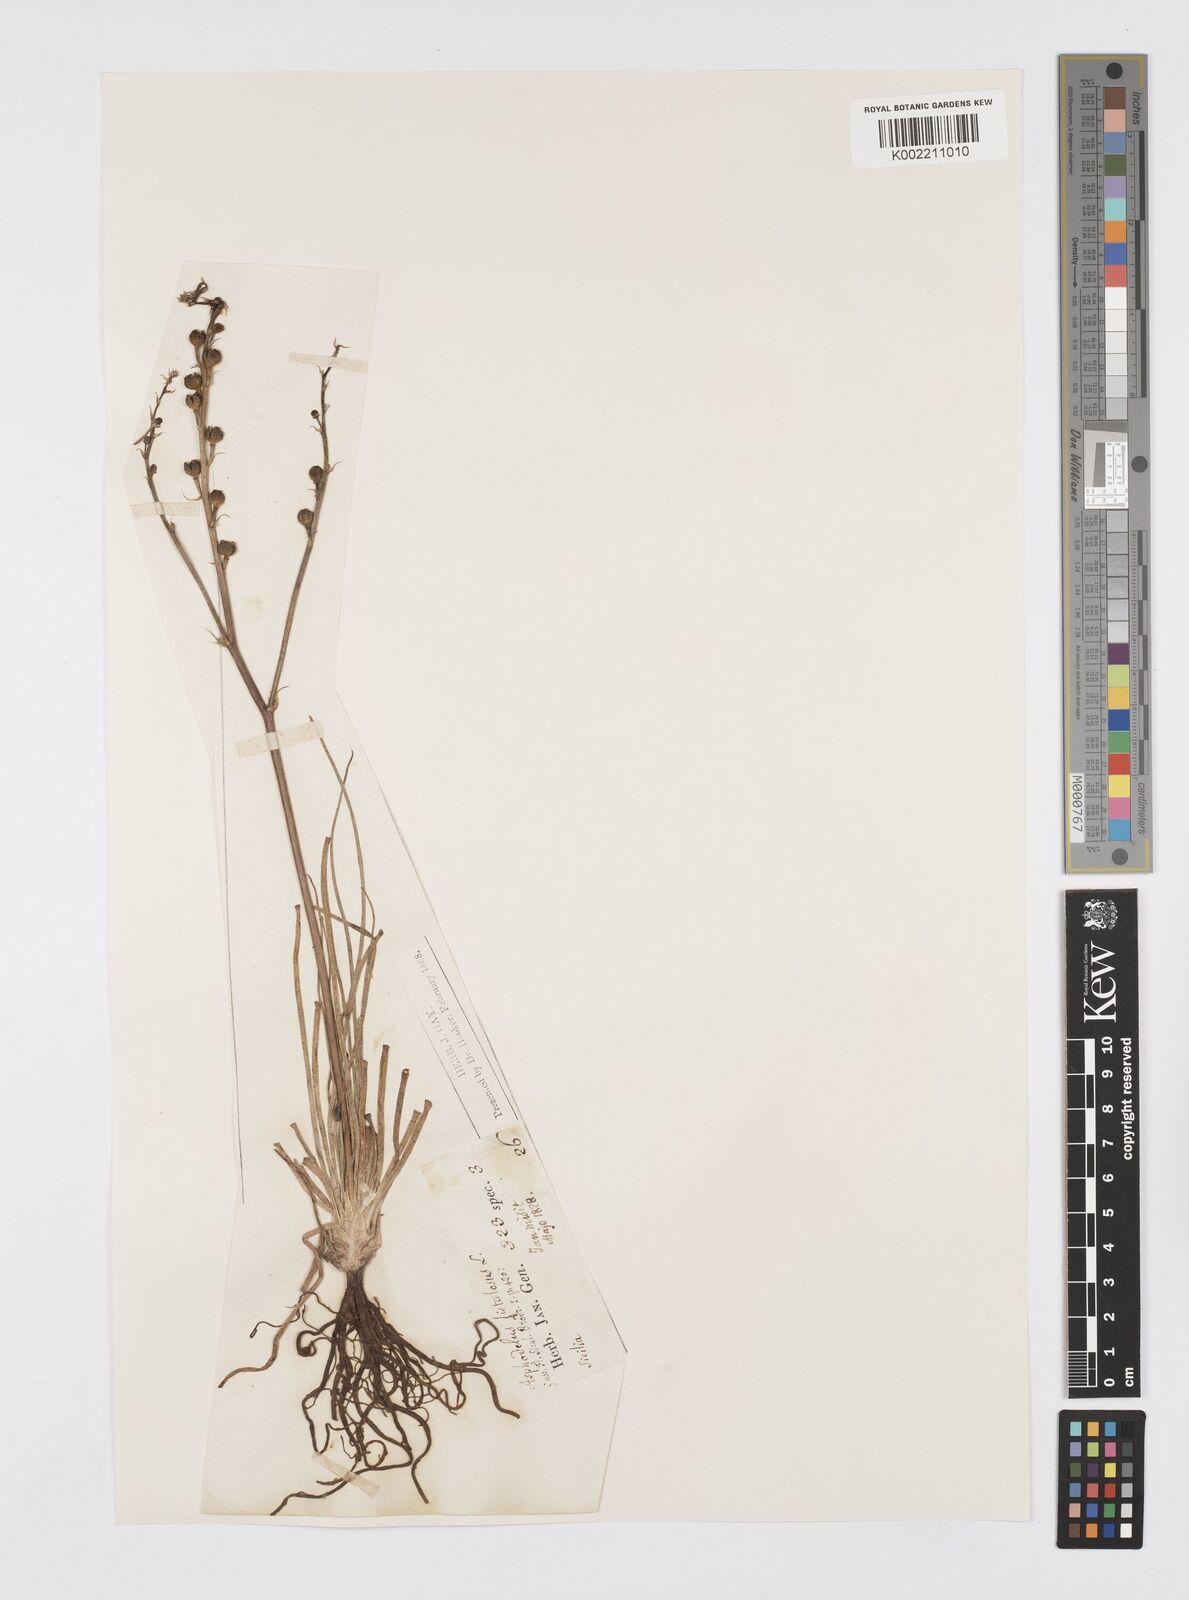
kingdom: Plantae
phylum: Tracheophyta
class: Liliopsida
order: Asparagales
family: Asphodelaceae
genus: Asphodelus
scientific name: Asphodelus fistulosus
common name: Onionweed
